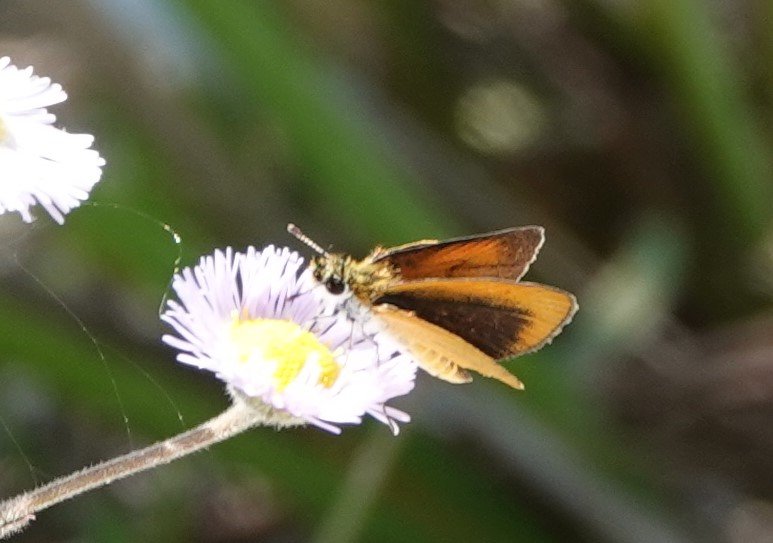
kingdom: Animalia
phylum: Arthropoda
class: Insecta
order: Lepidoptera
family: Hesperiidae
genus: Ancyloxypha
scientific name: Ancyloxypha numitor
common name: Least Skipper
